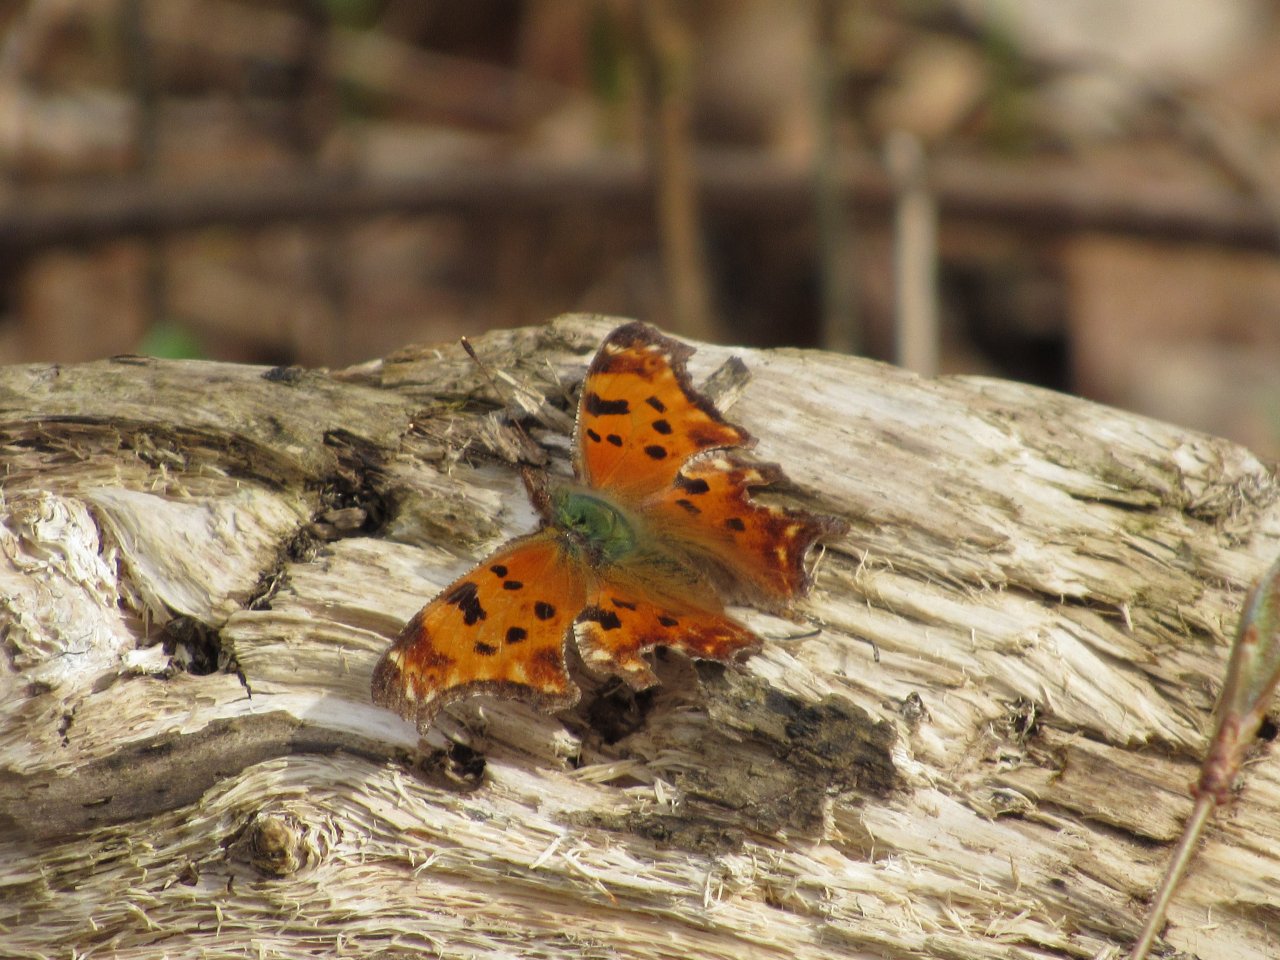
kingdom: Animalia
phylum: Arthropoda
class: Insecta
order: Lepidoptera
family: Nymphalidae
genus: Polygonia
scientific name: Polygonia comma
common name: Eastern Comma
